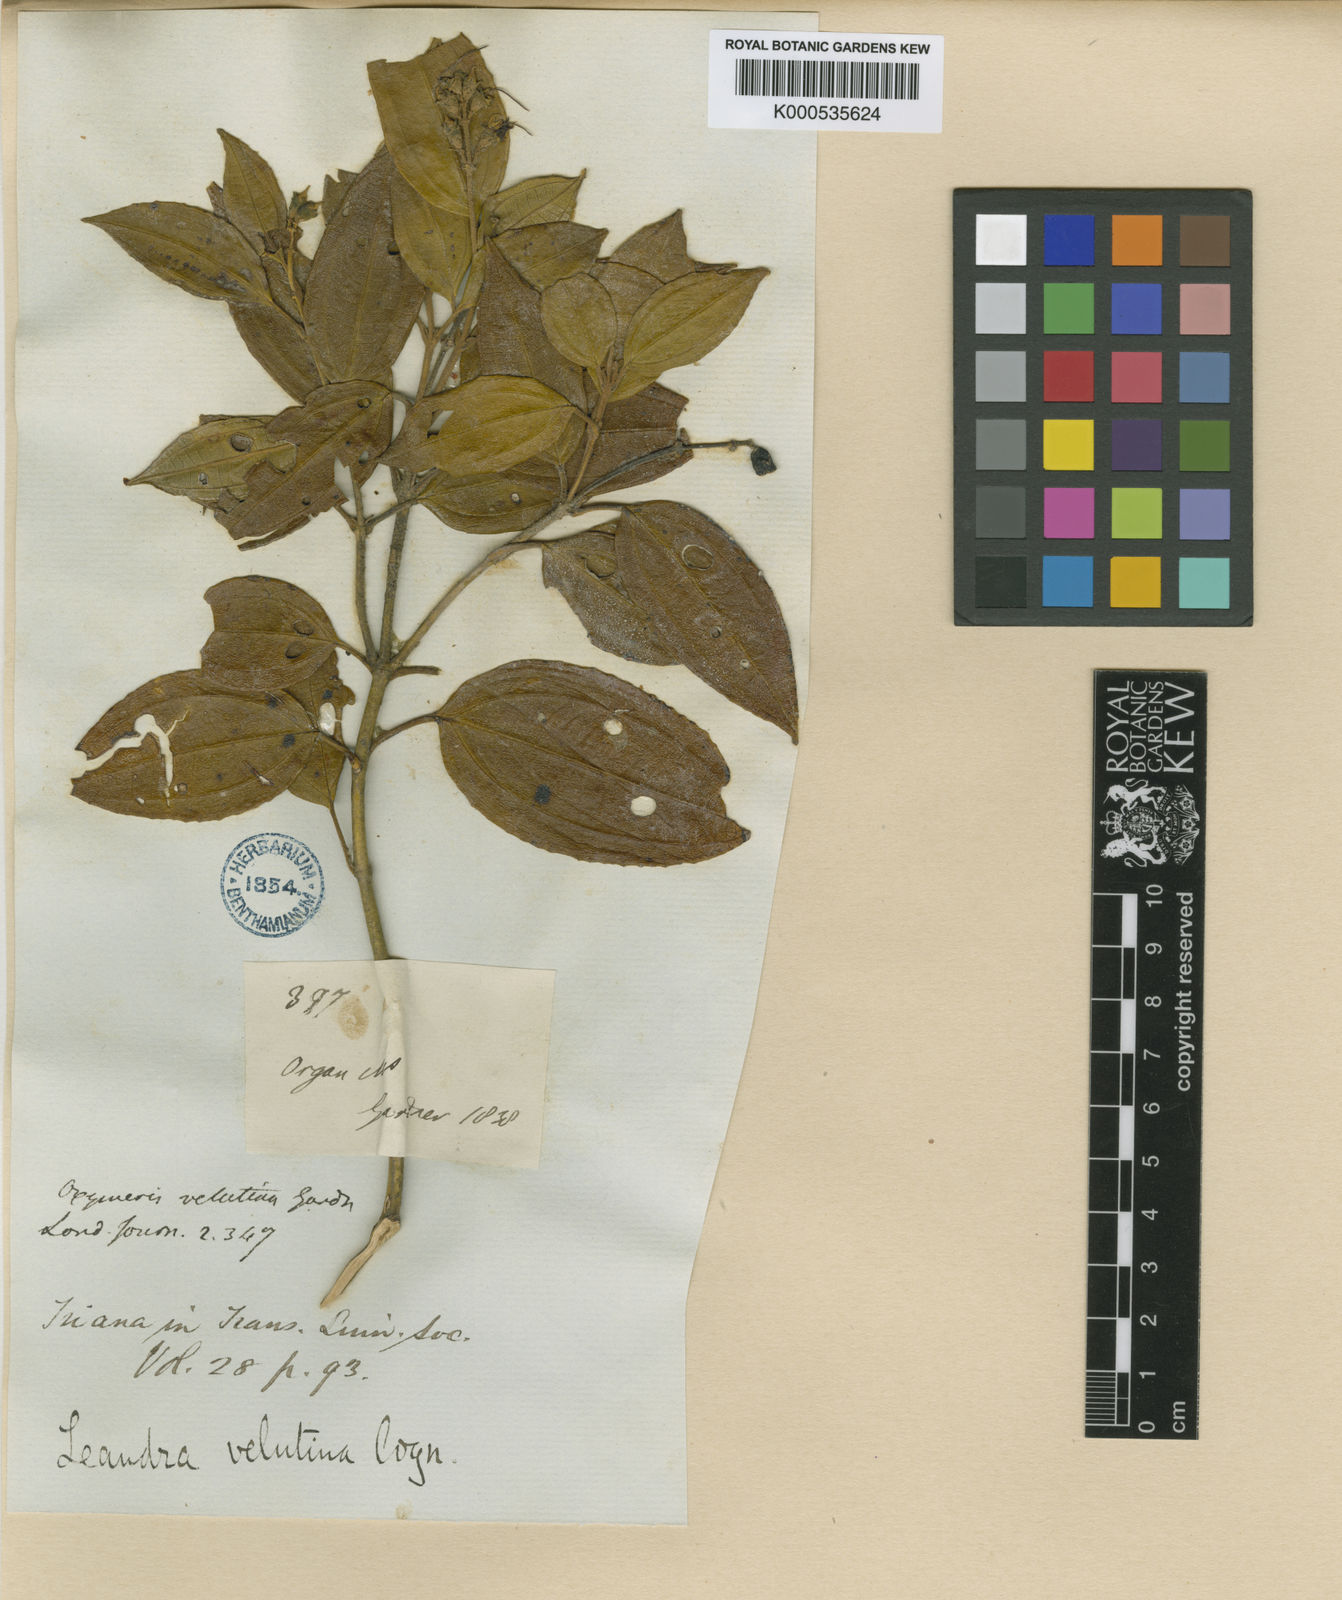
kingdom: Plantae
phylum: Tracheophyta
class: Magnoliopsida
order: Myrtales
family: Melastomataceae
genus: Miconia
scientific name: Miconia leavelutina
